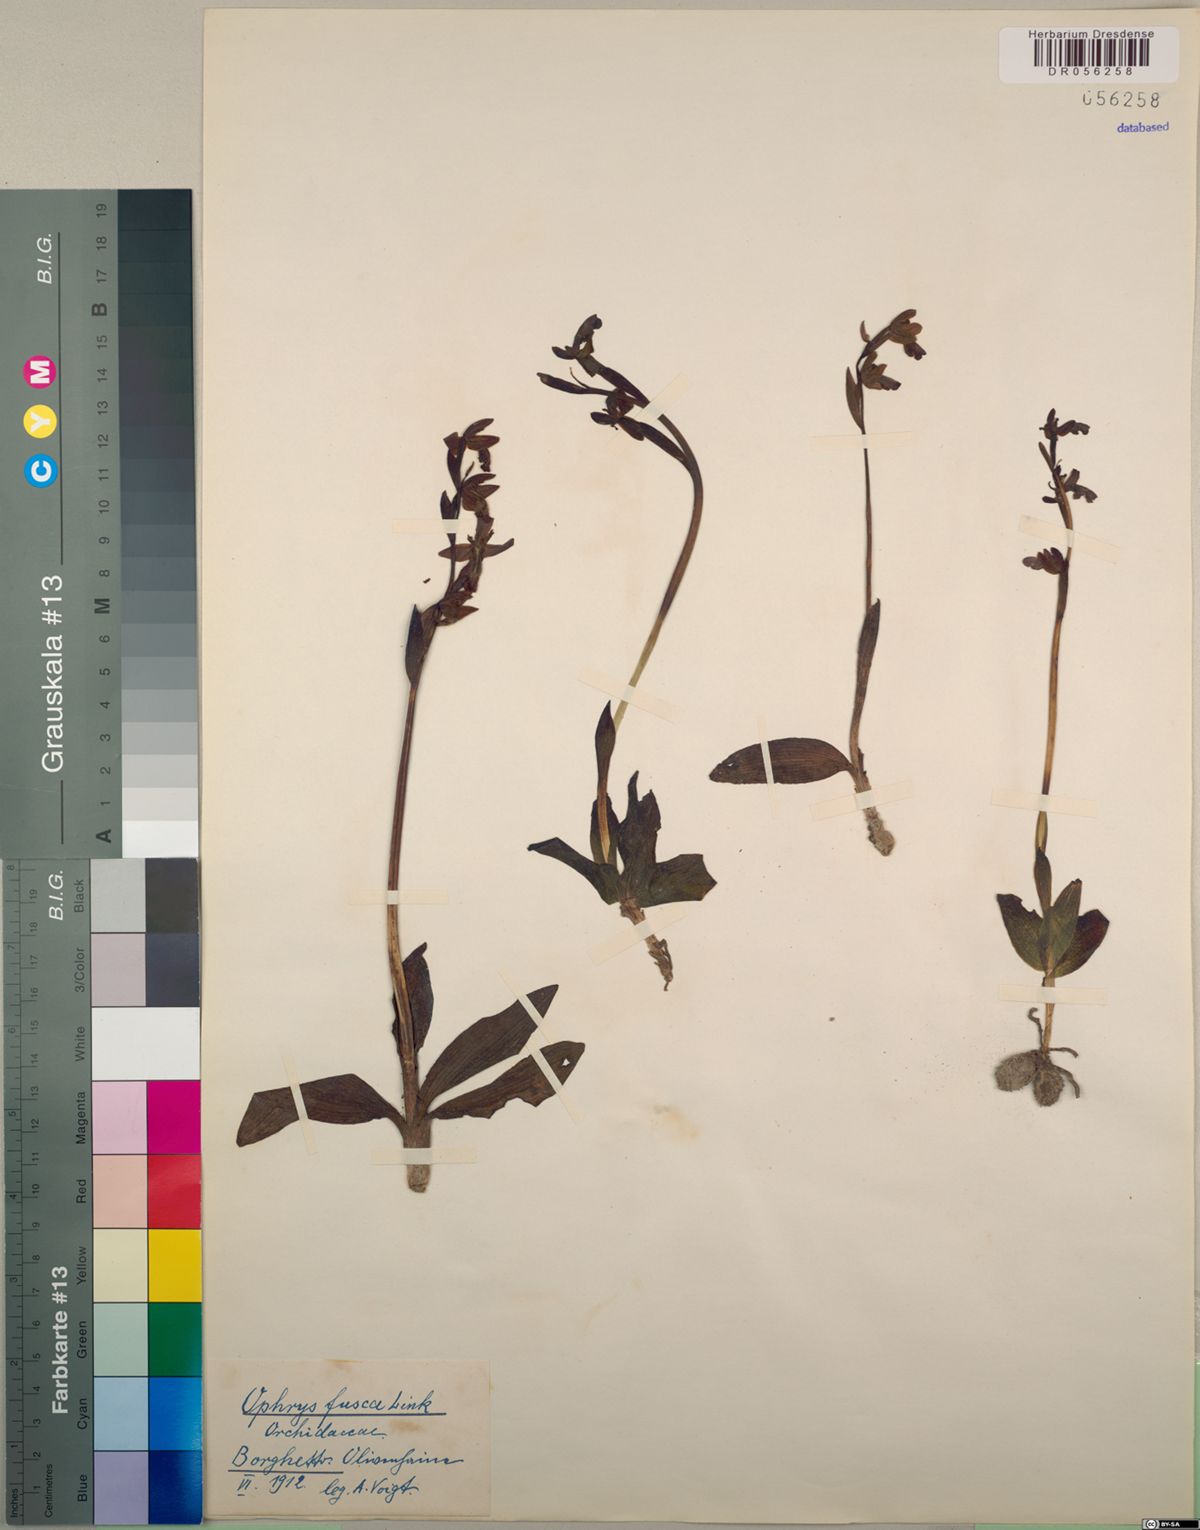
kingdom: Plantae
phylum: Tracheophyta
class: Liliopsida
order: Asparagales
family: Orchidaceae
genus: Ophrys
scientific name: Ophrys fusca
